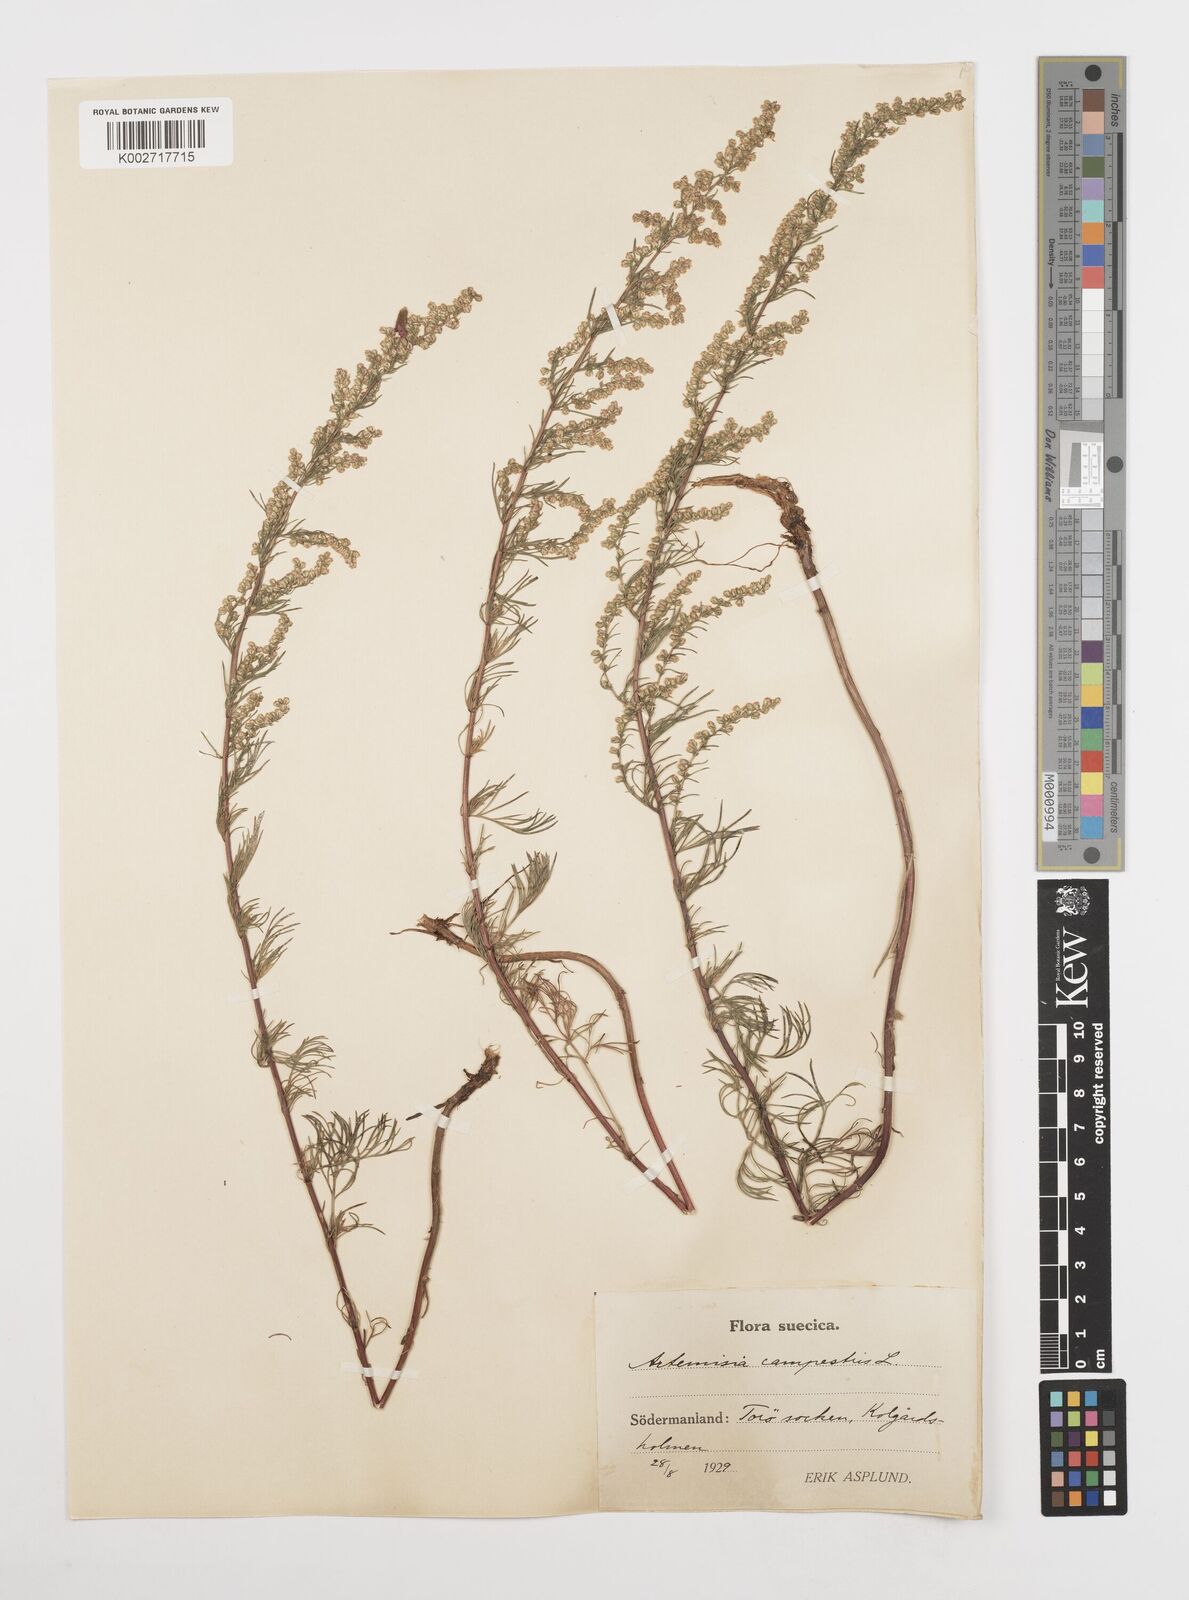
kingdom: Plantae
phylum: Tracheophyta
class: Magnoliopsida
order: Asterales
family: Asteraceae
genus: Artemisia
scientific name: Artemisia campestris
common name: Field wormwood
